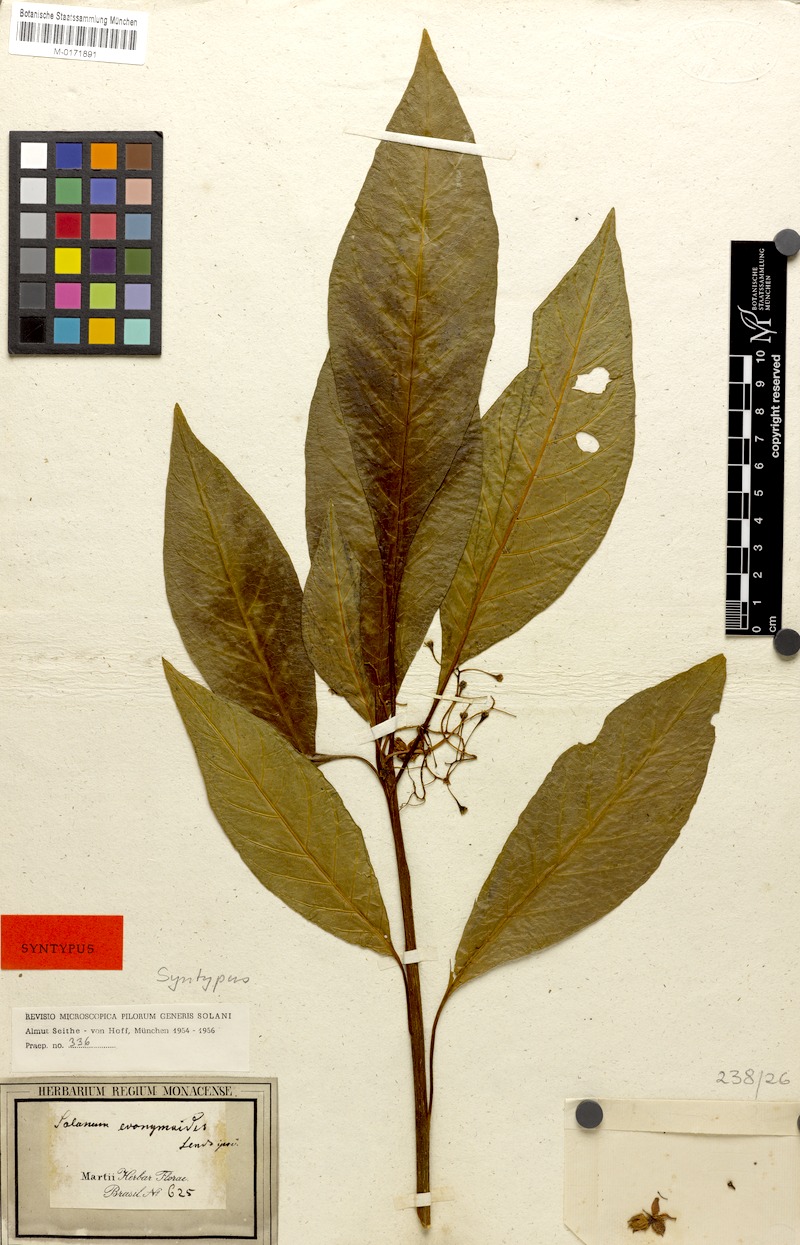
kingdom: Plantae
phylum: Tracheophyta
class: Magnoliopsida
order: Solanales
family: Solanaceae
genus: Solanum
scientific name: Solanum evonymoides
